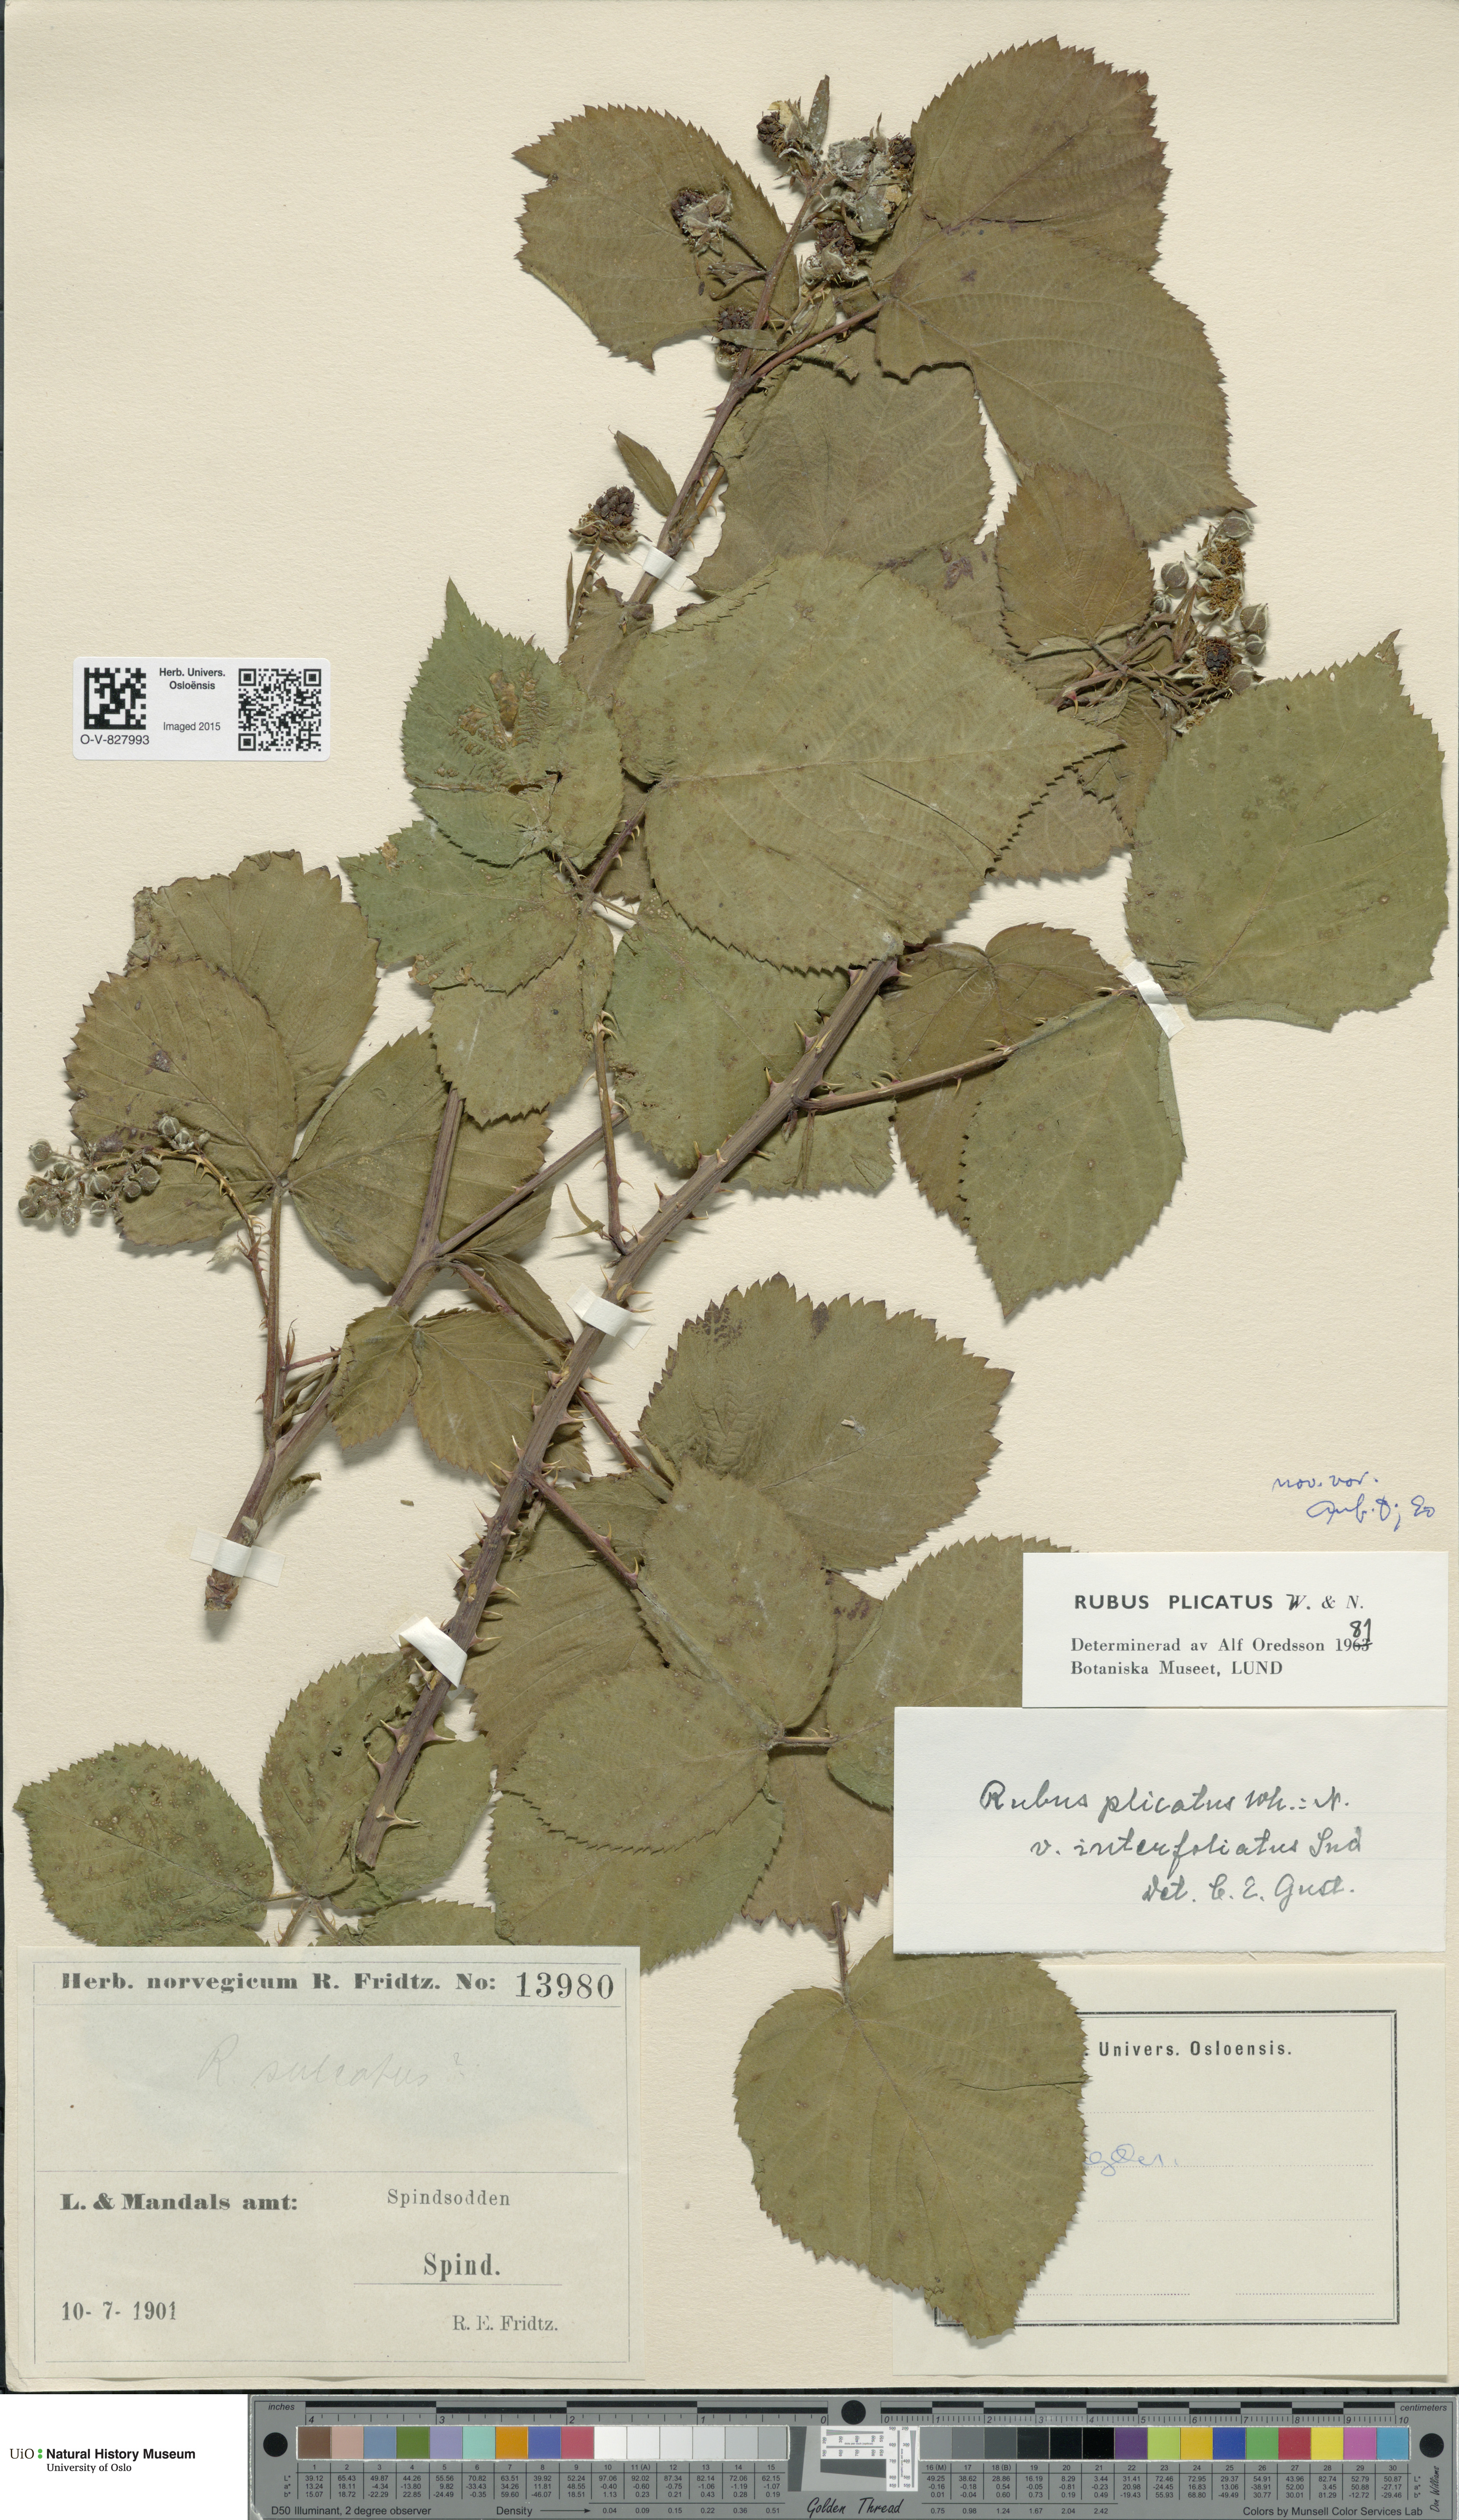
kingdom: Plantae
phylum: Tracheophyta
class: Magnoliopsida
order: Rosales
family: Rosaceae
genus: Rubus
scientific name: Rubus fruticosus
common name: Blackberry, bramble
